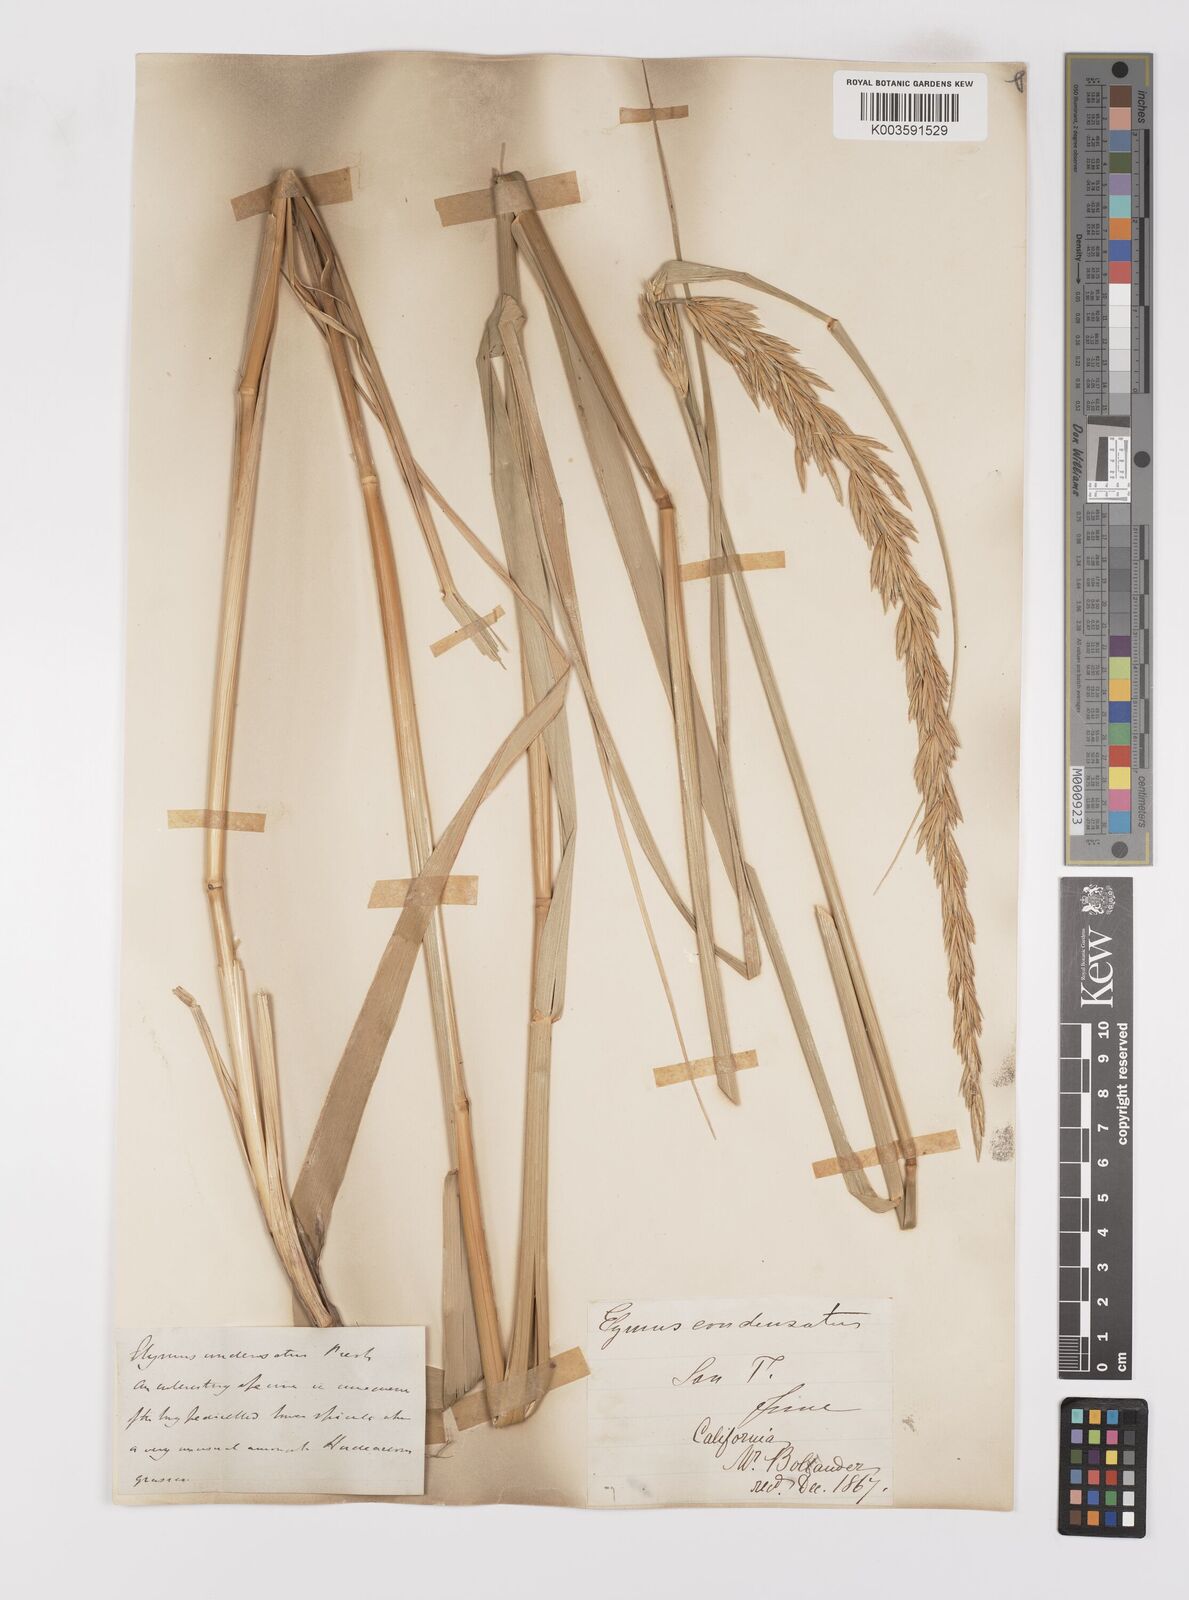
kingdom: Plantae
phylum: Tracheophyta
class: Liliopsida
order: Poales
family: Poaceae
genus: Leymus
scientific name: Leymus condensatus
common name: Giant wild rye
